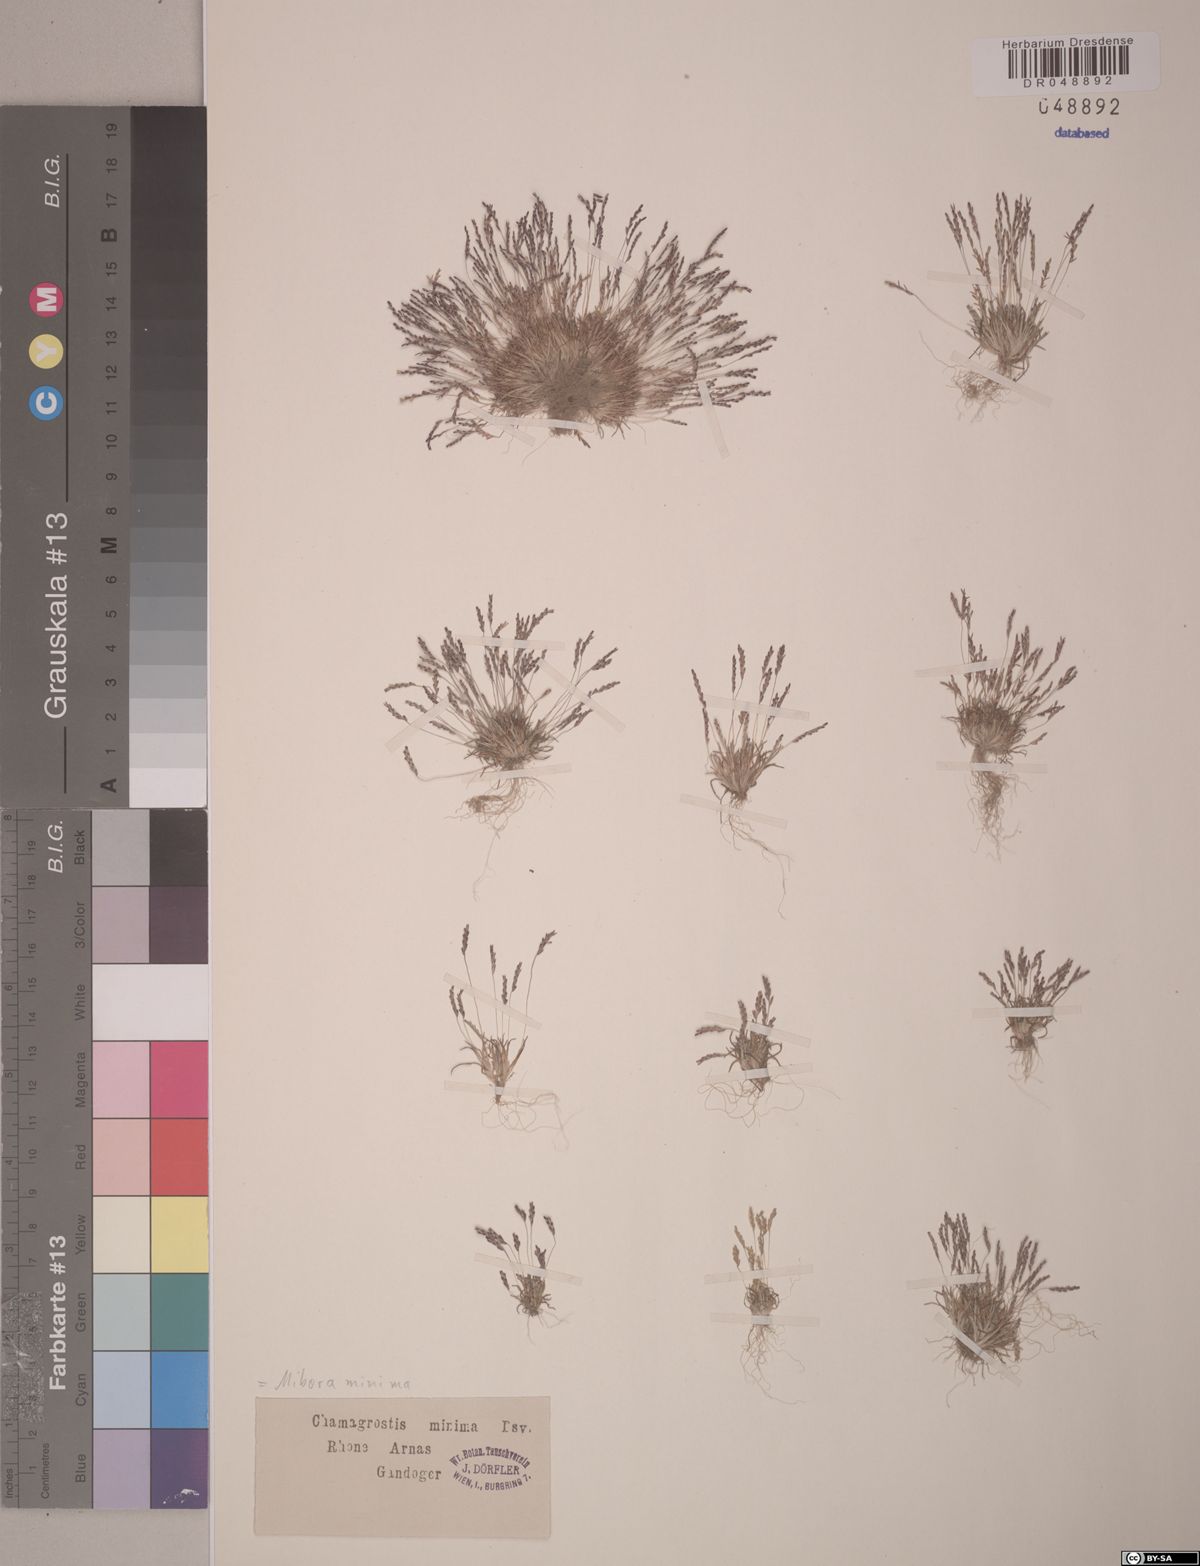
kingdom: Plantae
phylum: Tracheophyta
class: Liliopsida
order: Poales
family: Poaceae
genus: Mibora
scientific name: Mibora minima
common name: Early sand-grass
